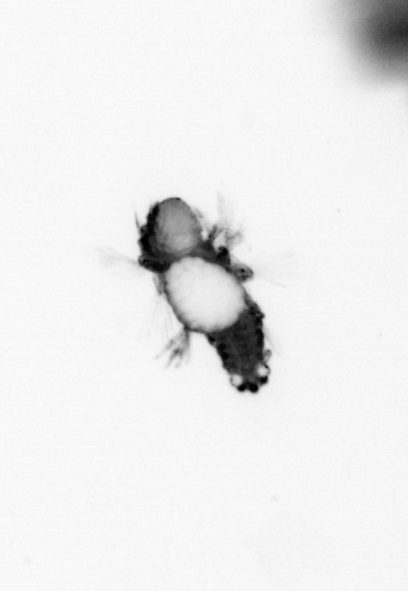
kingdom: Animalia
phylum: Annelida
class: Polychaeta
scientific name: Polychaeta
